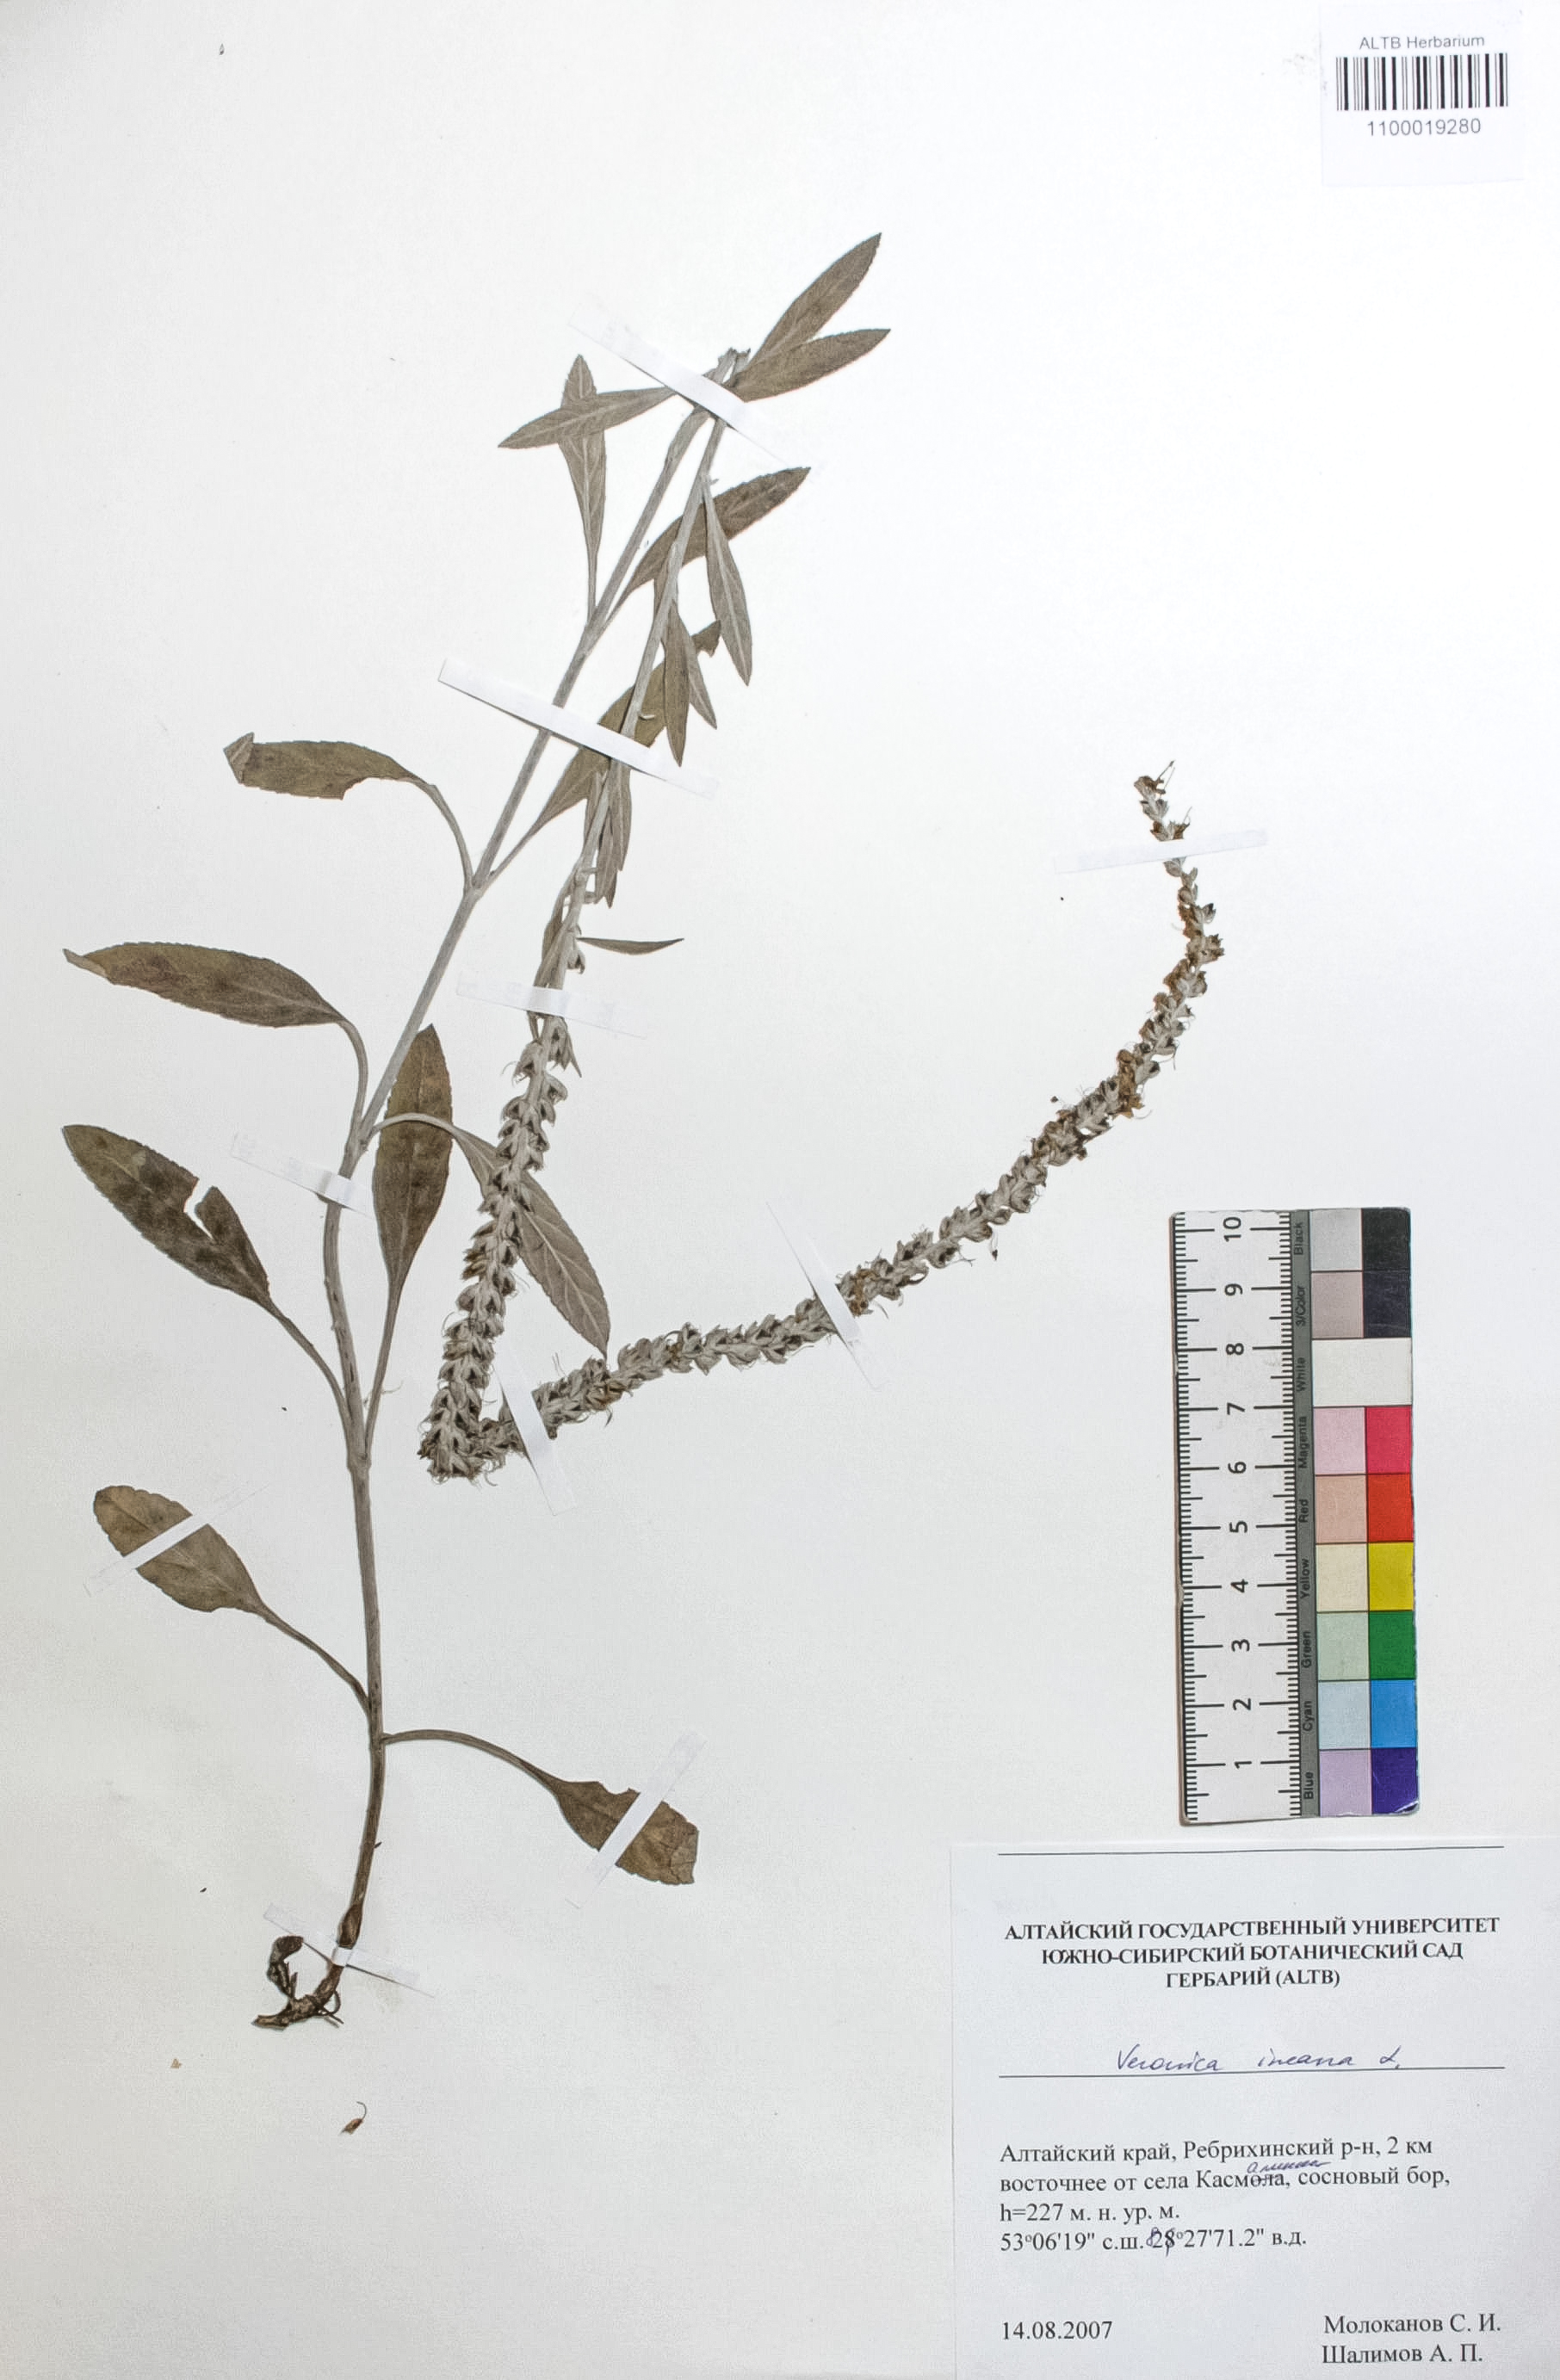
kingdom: Plantae
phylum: Tracheophyta
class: Magnoliopsida
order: Lamiales
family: Plantaginaceae
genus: Veronica
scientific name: Veronica incana
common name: Silver speedwell
